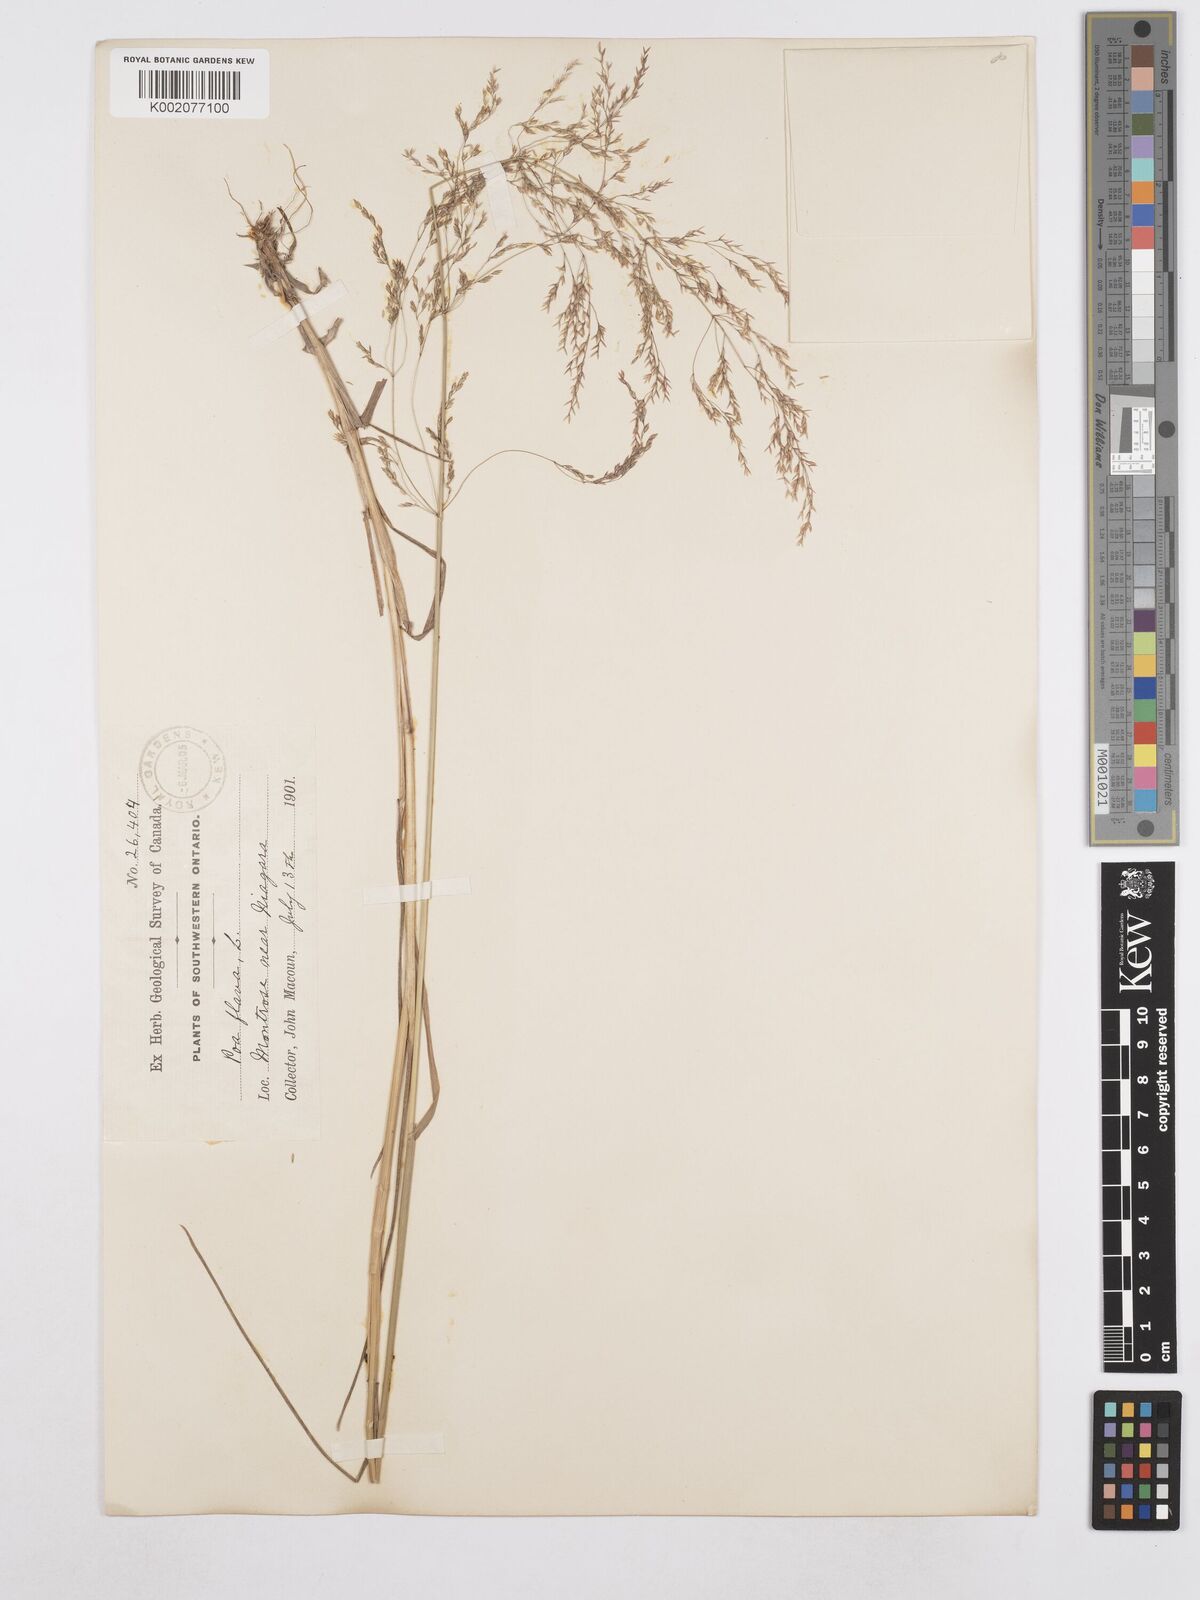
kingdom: Plantae
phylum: Tracheophyta
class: Liliopsida
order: Poales
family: Poaceae
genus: Poa
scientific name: Poa palustris
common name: Swamp meadow-grass
